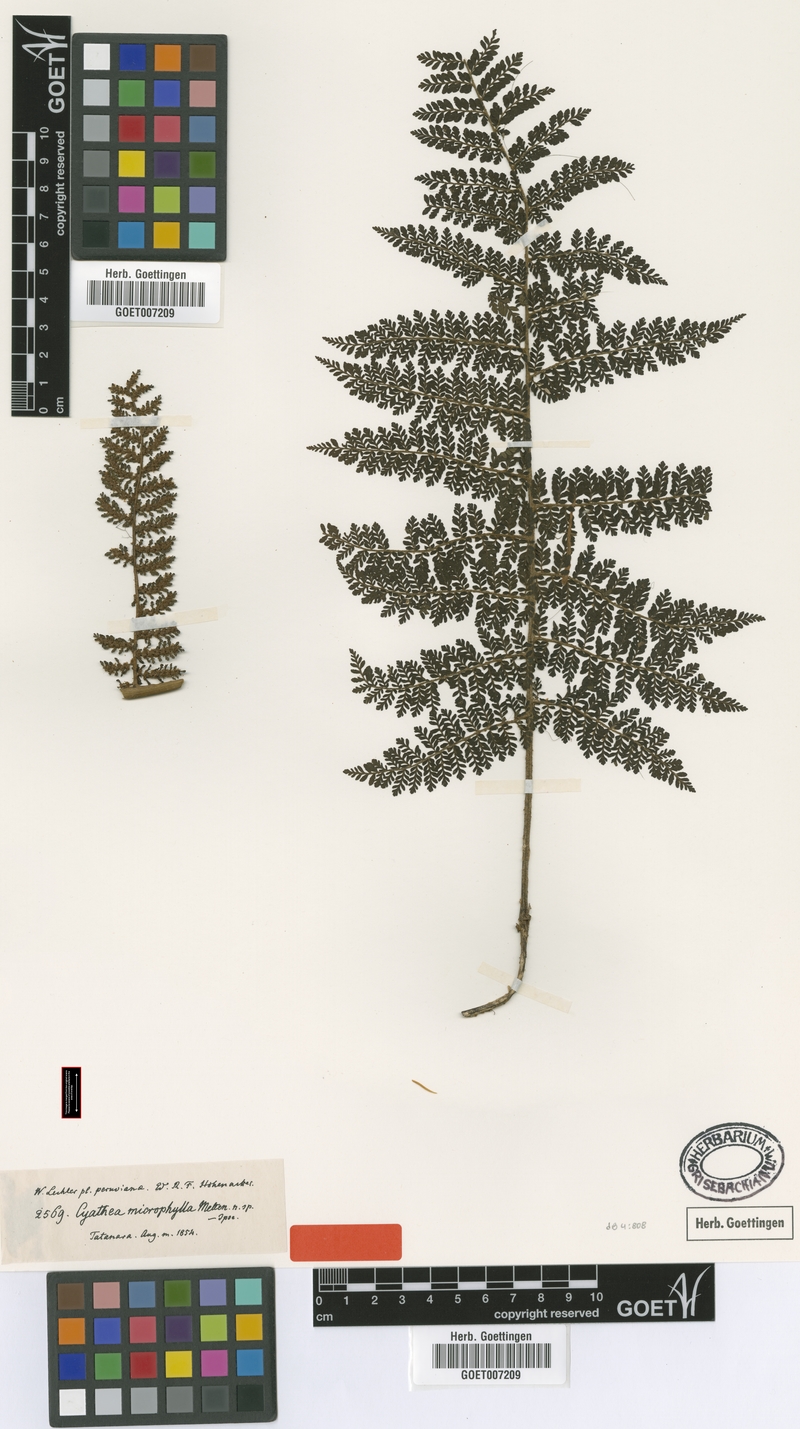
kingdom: Plantae
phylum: Tracheophyta
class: Polypodiopsida
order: Cyatheales
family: Cyatheaceae
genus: Cyathea
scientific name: Cyathea microphylla
